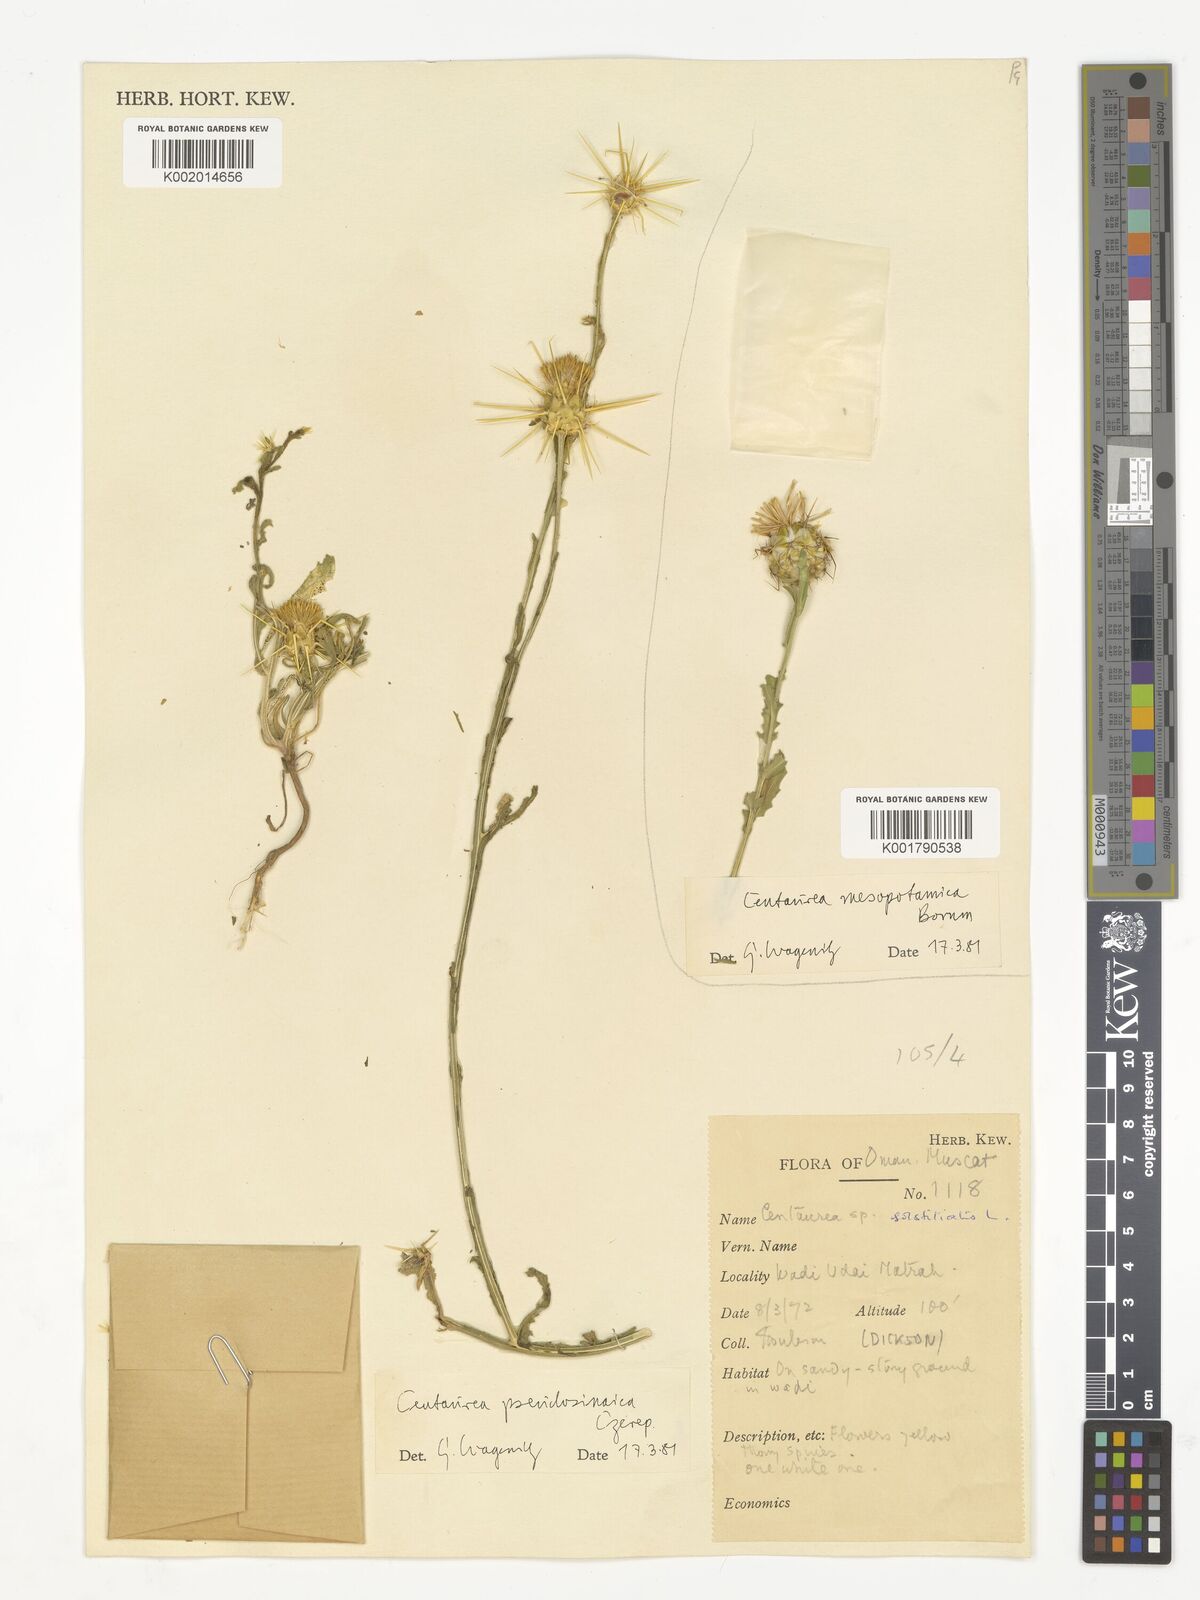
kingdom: Plantae
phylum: Tracheophyta
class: Magnoliopsida
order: Asterales
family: Asteraceae
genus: Centaurea
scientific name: Centaurea pseudosinaica
